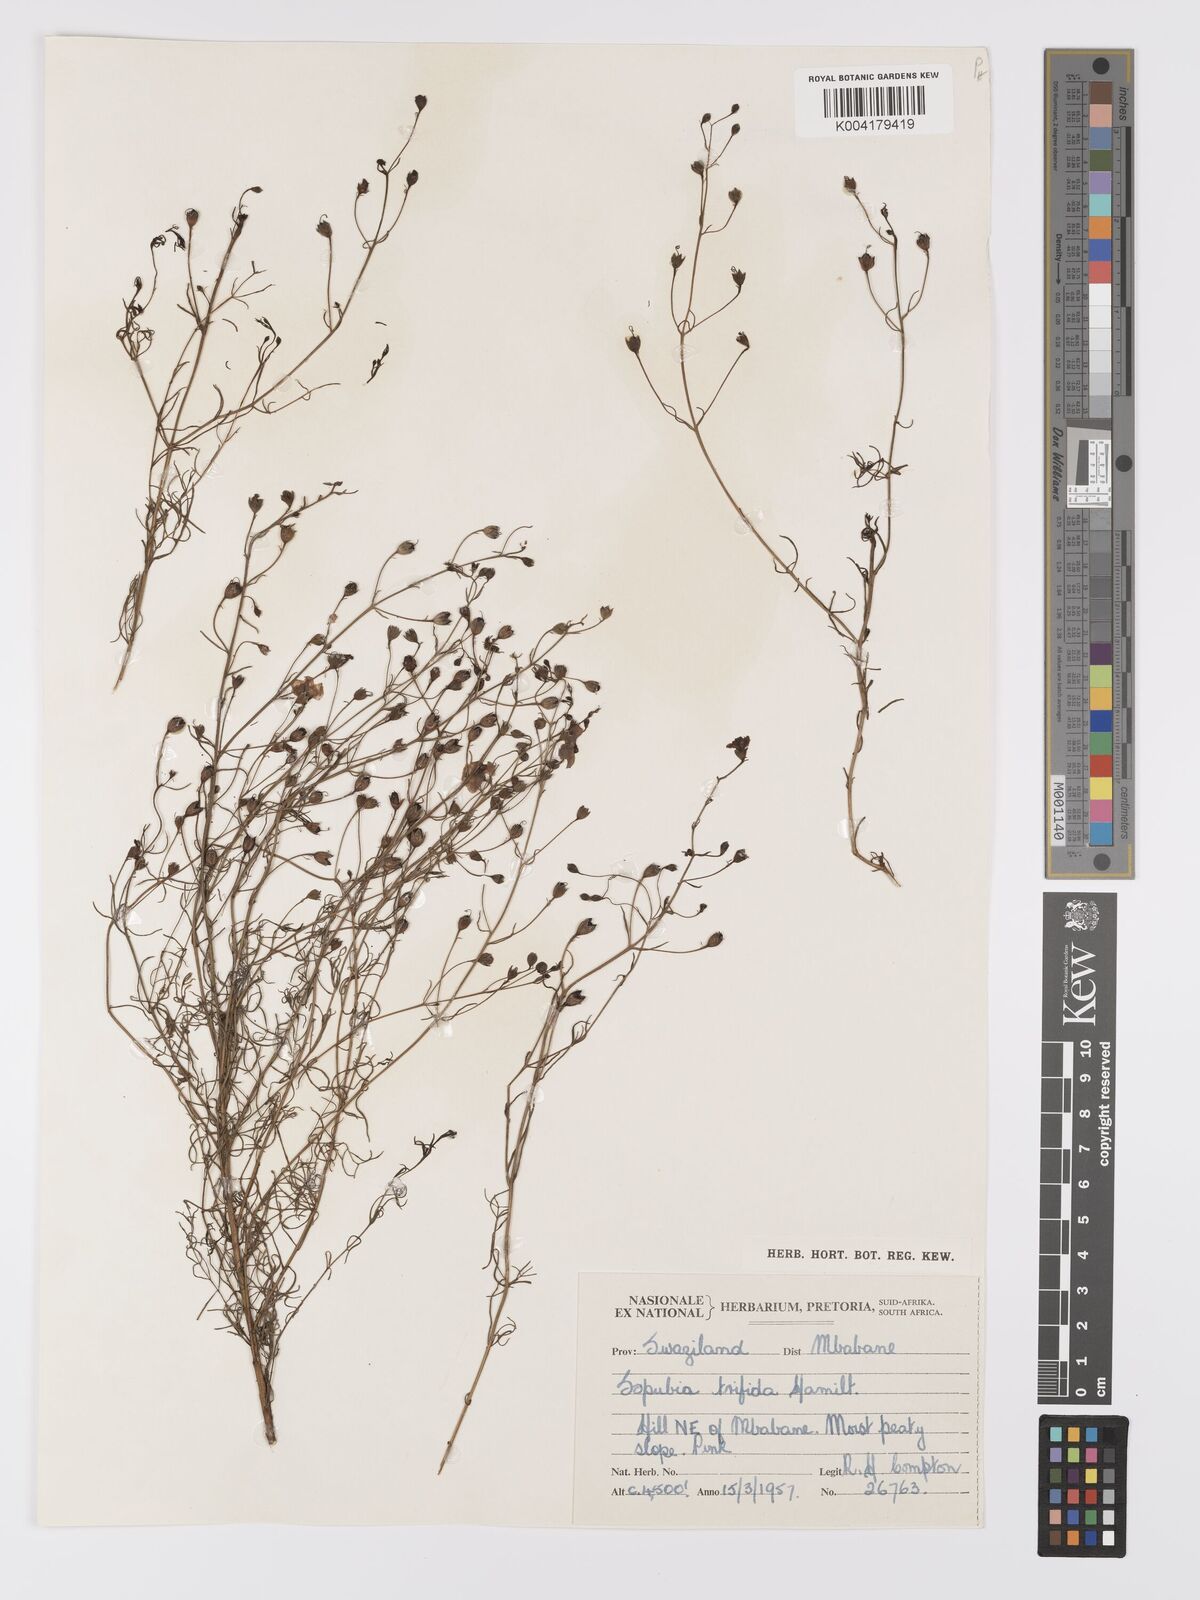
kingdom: Plantae
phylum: Tracheophyta
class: Magnoliopsida
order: Lamiales
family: Orobanchaceae
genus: Sopubia
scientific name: Sopubia trifida
